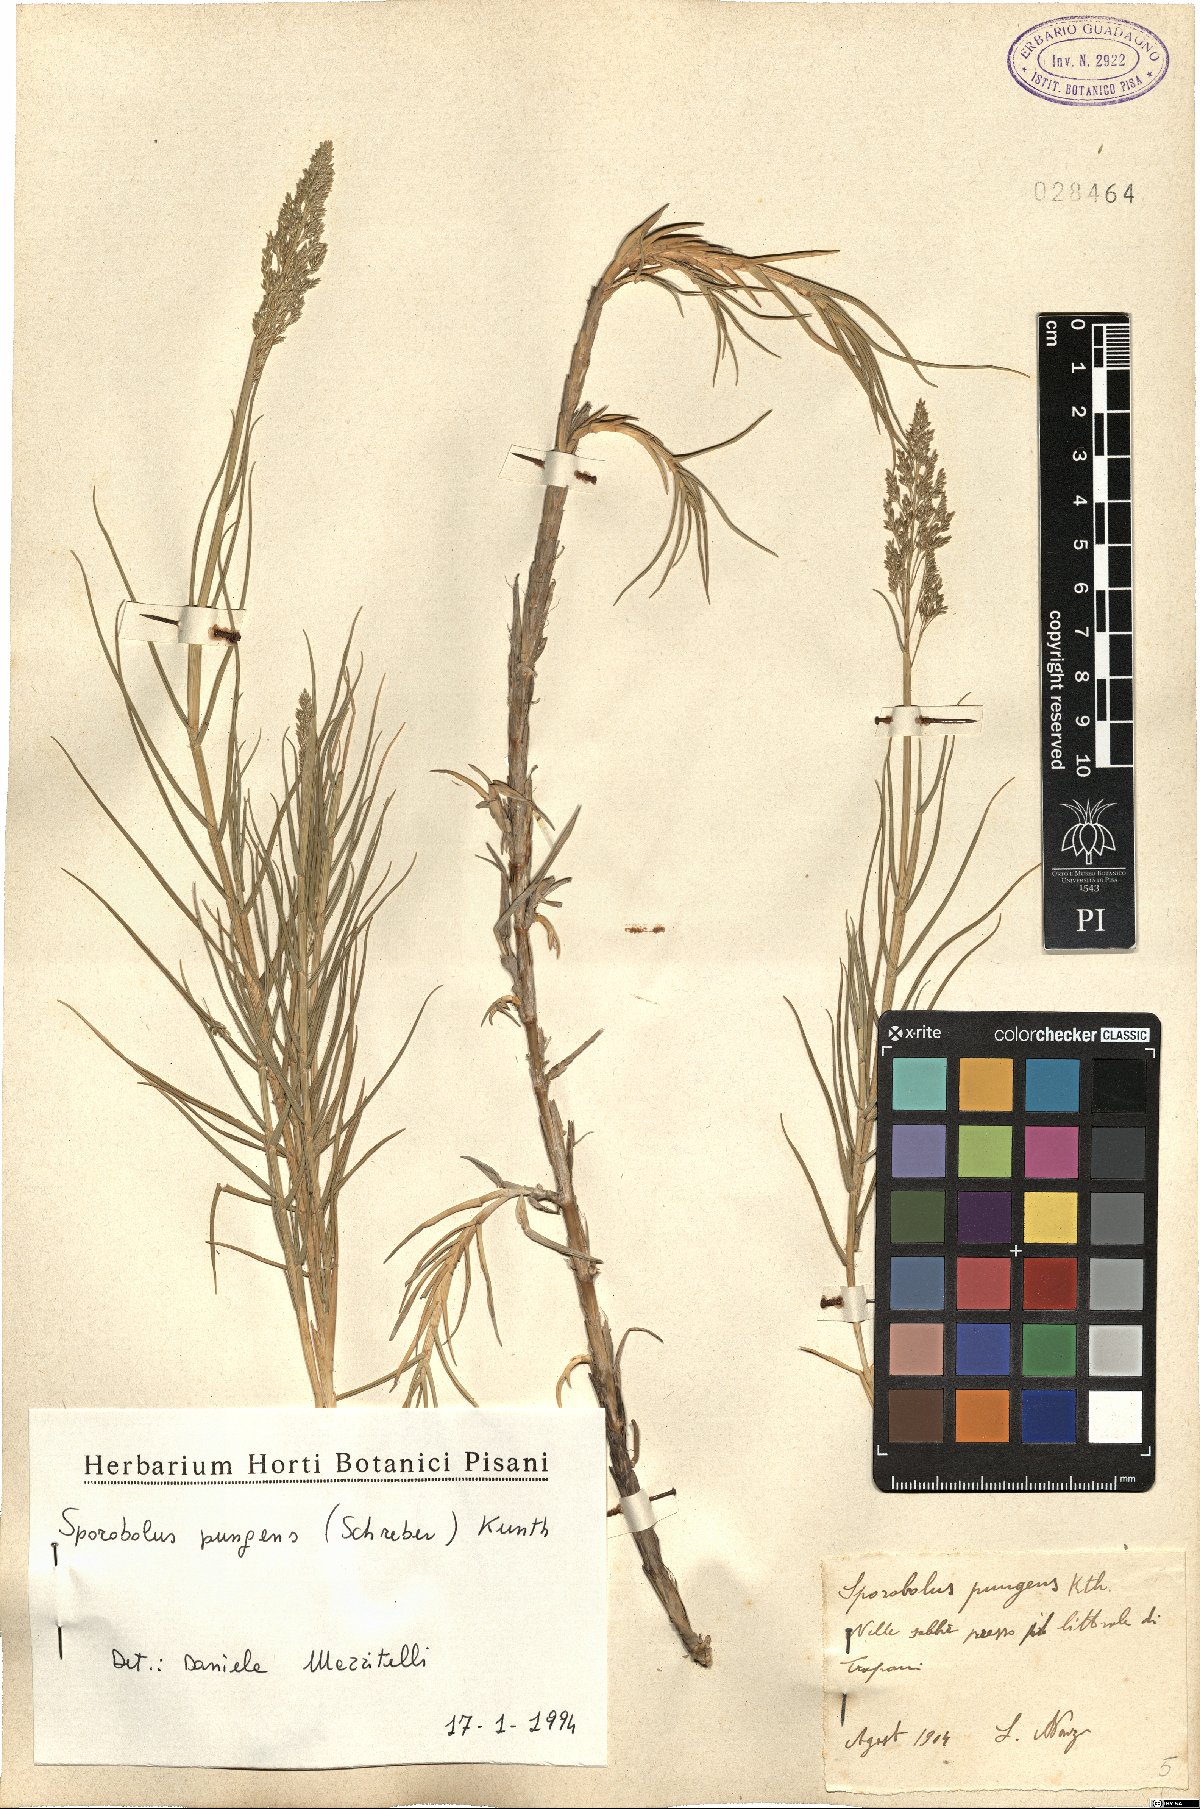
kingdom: Plantae
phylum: Tracheophyta
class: Liliopsida
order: Poales
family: Poaceae
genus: Sporobolus
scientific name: Sporobolus pungens
